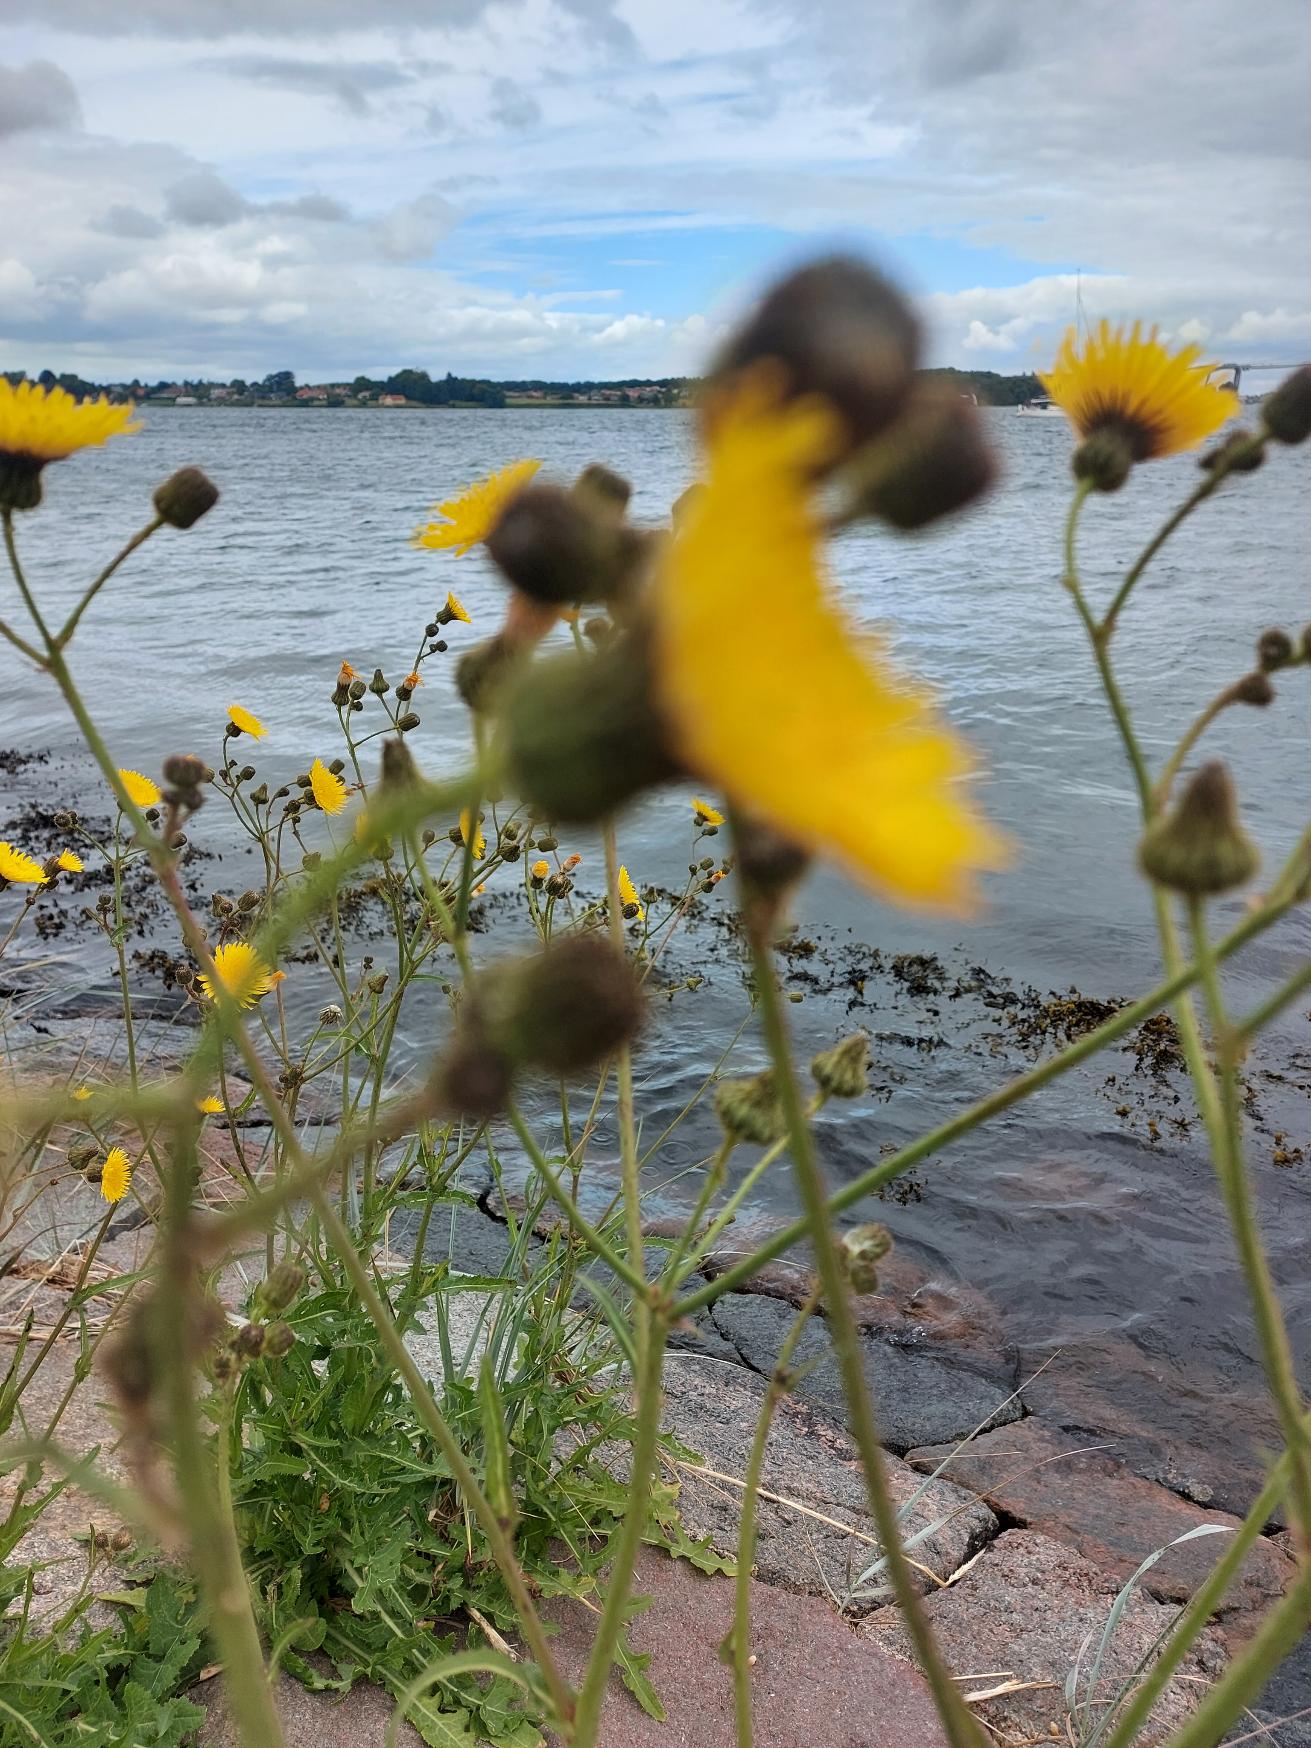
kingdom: Plantae
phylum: Tracheophyta
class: Magnoliopsida
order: Asterales
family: Asteraceae
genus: Sonchus
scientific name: Sonchus arvensis
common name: Ager-svinemælk
